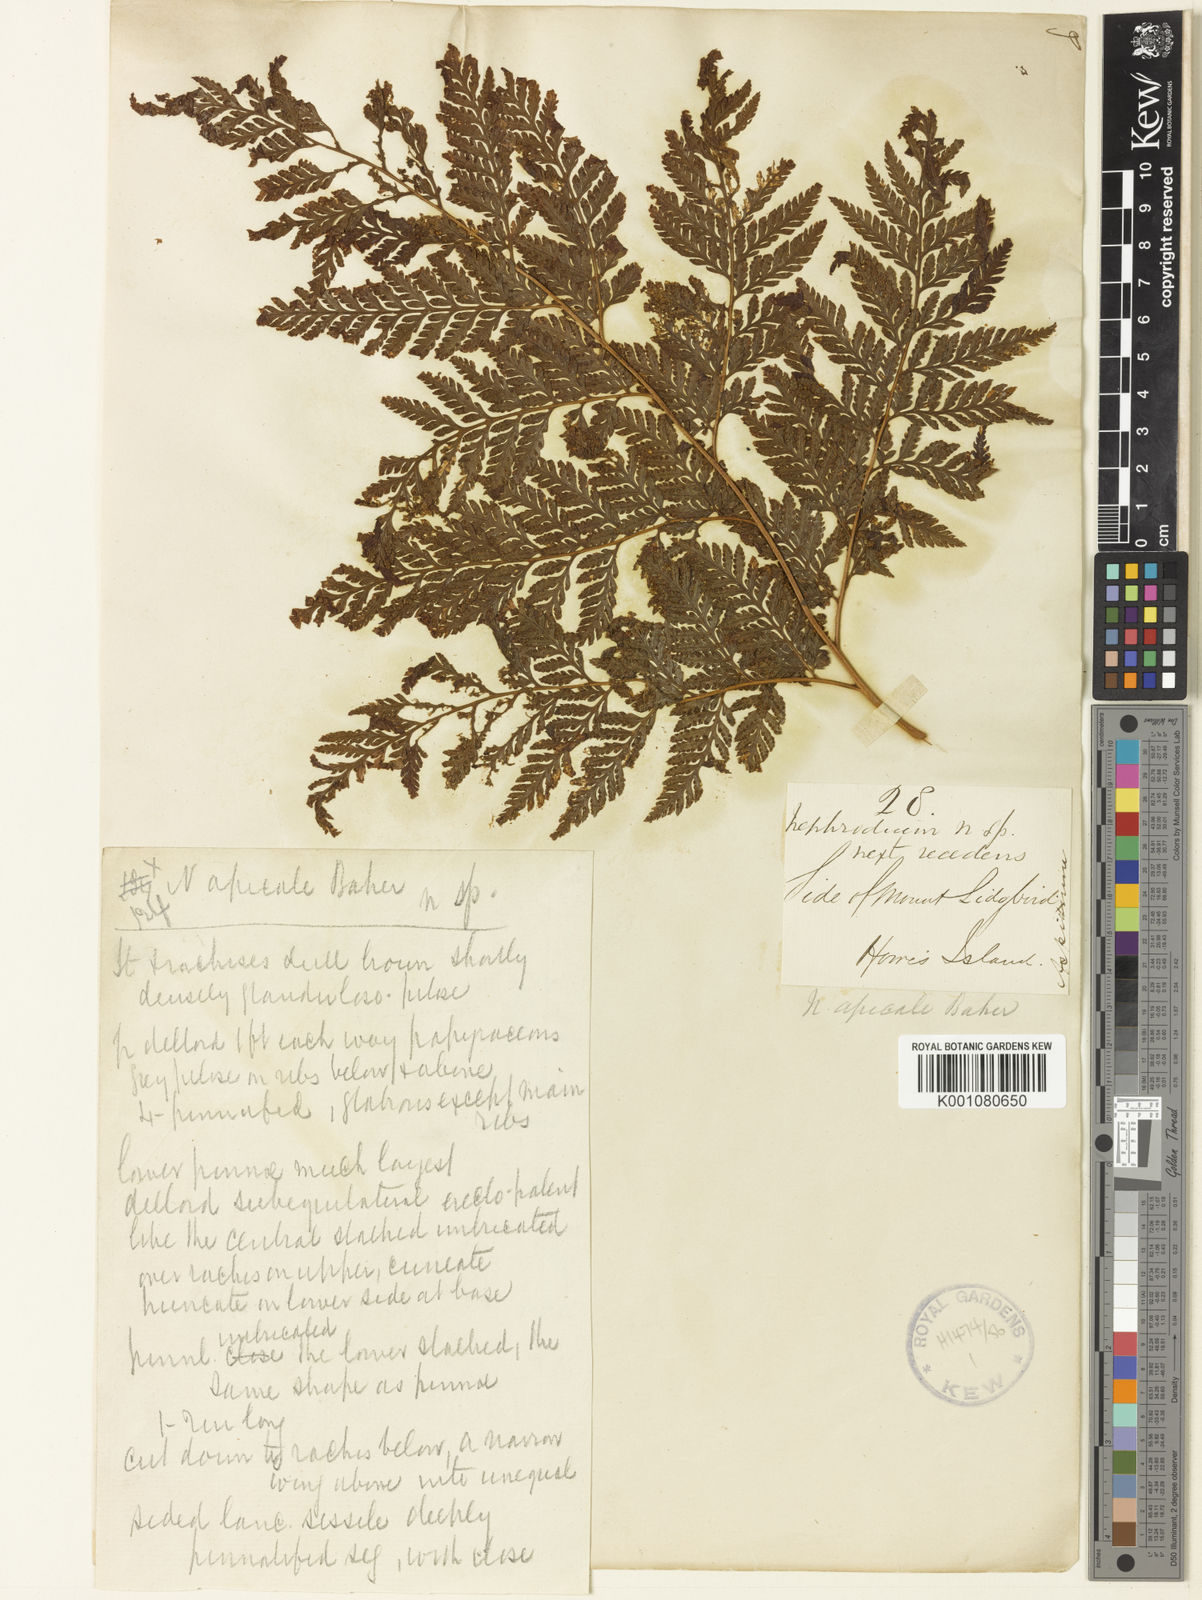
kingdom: Plantae
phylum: Tracheophyta
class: Polypodiopsida
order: Polypodiales
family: Dryopteridaceae
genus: Lastreopsis
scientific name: Lastreopsis nephrodioides
